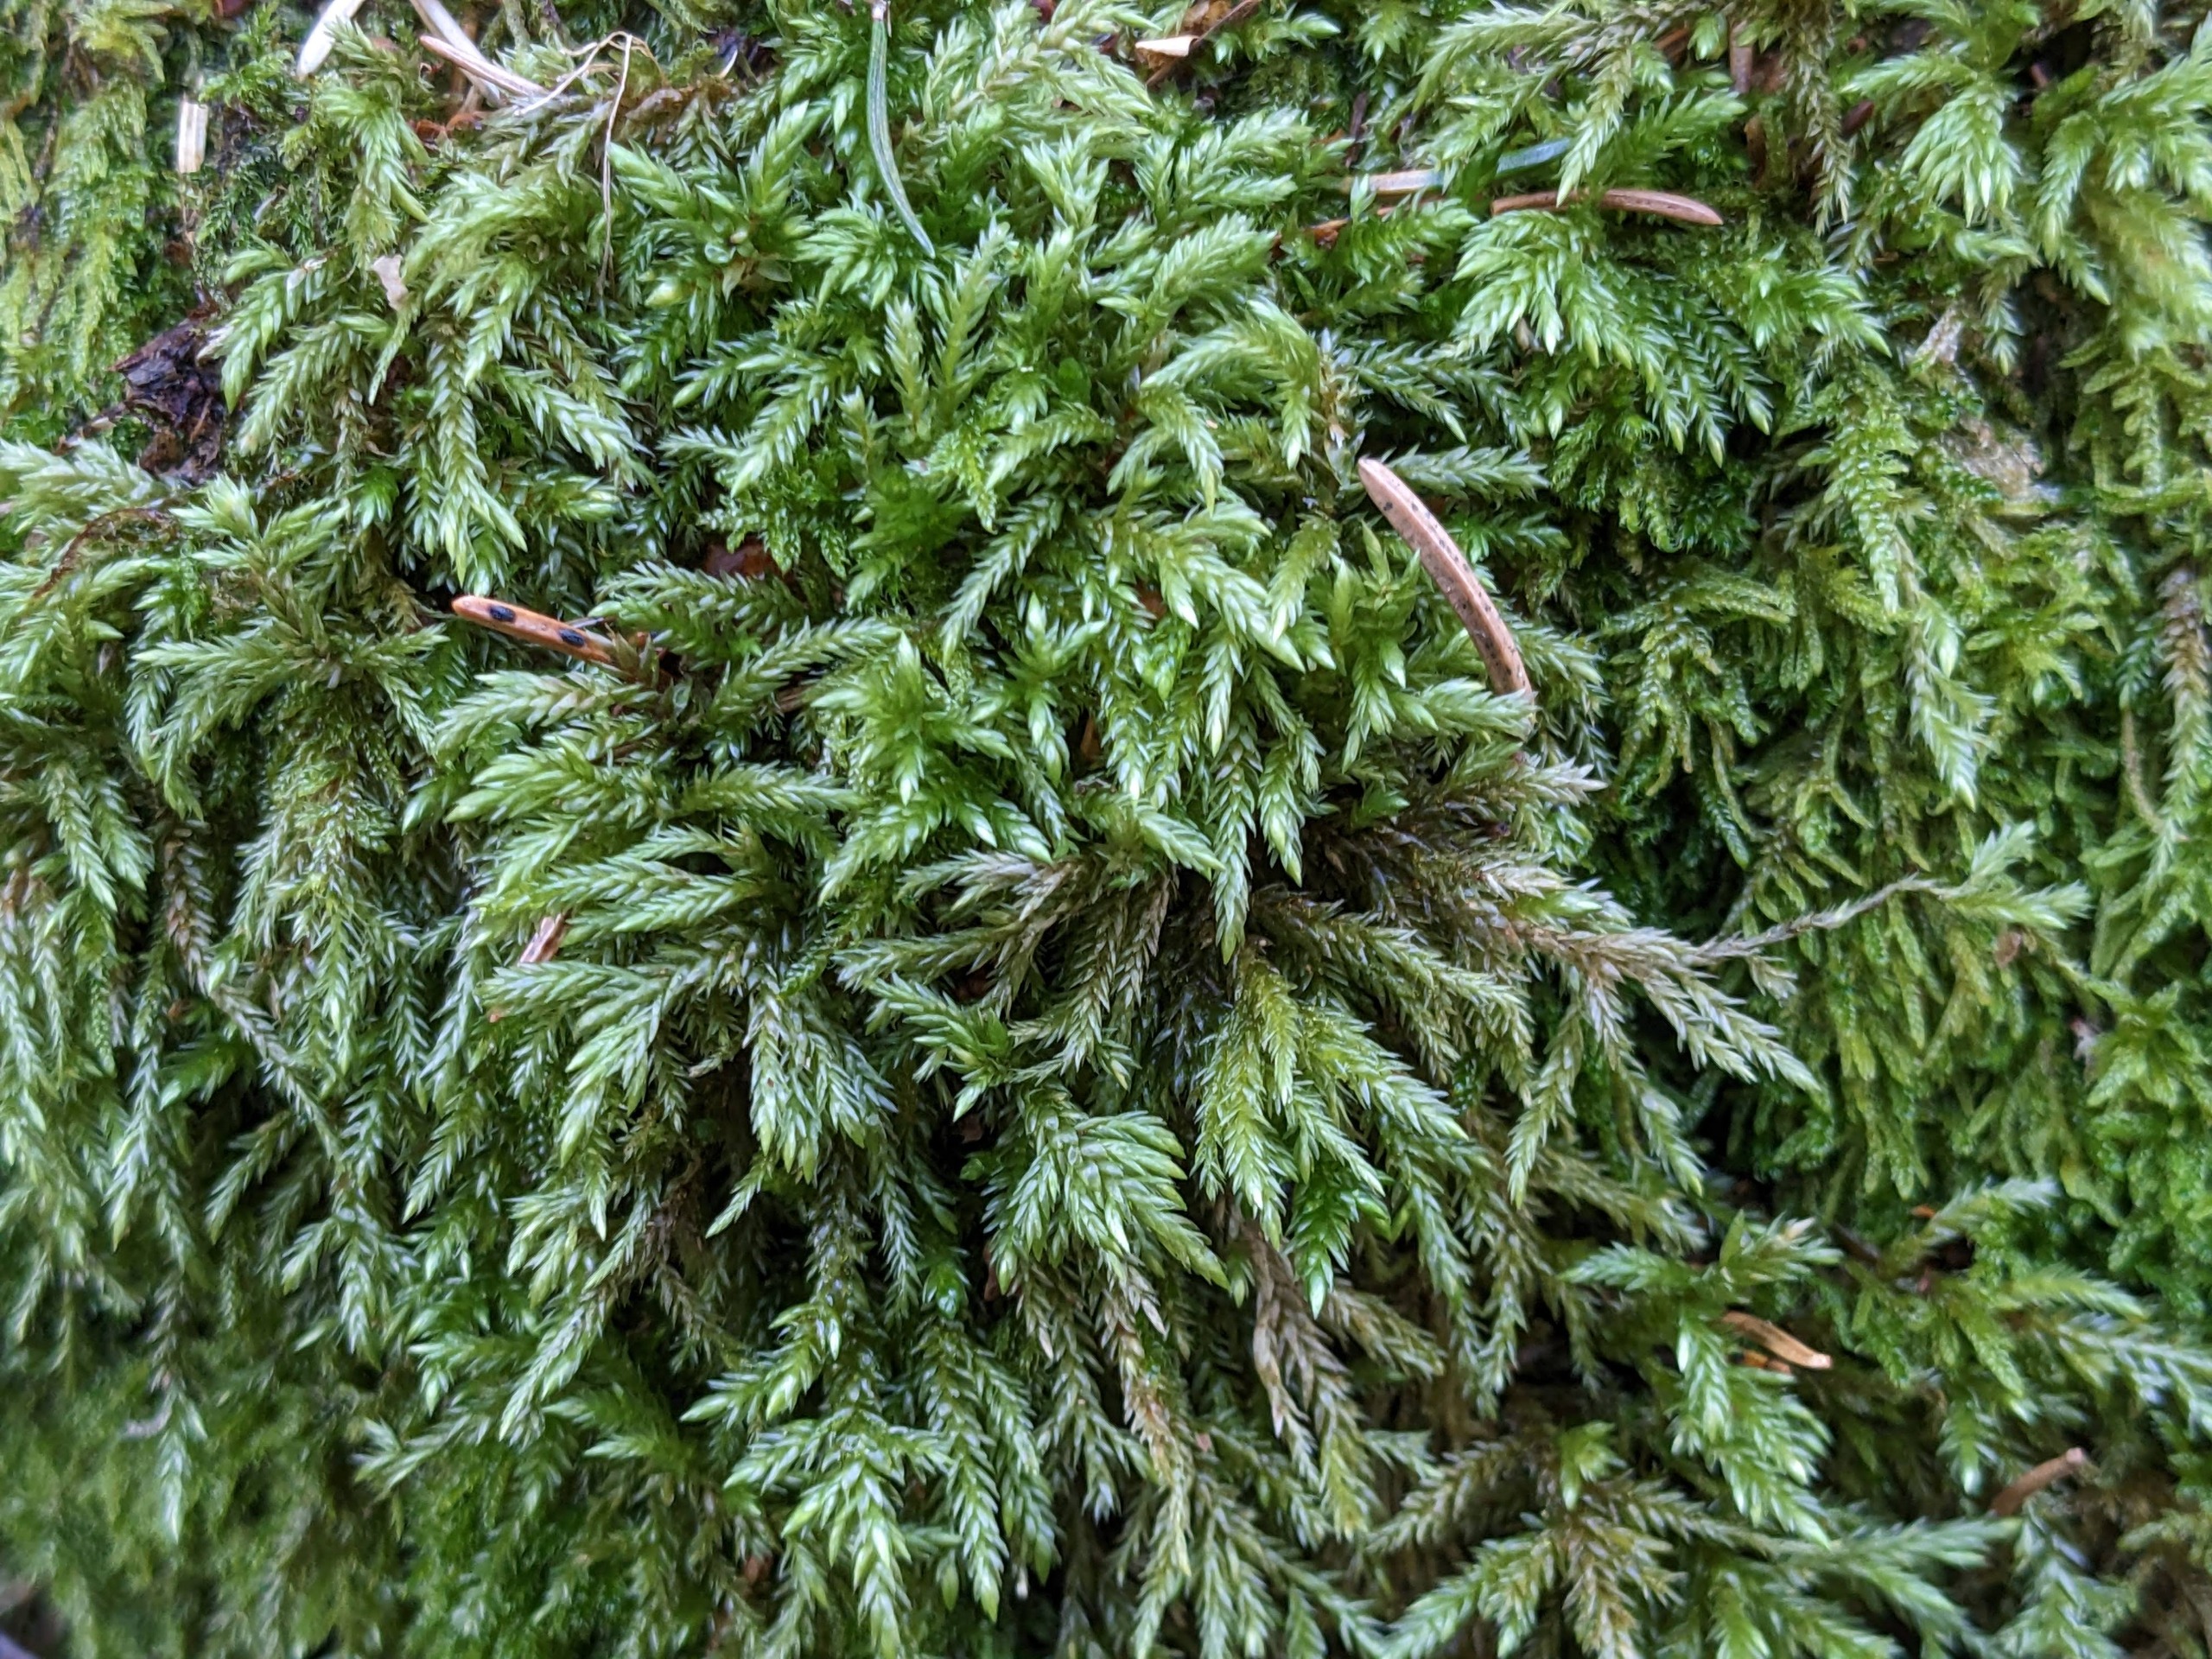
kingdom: Plantae
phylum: Bryophyta
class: Bryopsida
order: Hypnales
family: Lembophyllaceae
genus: Isothecium
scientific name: Isothecium alopecuroides
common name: Stor stammemos
